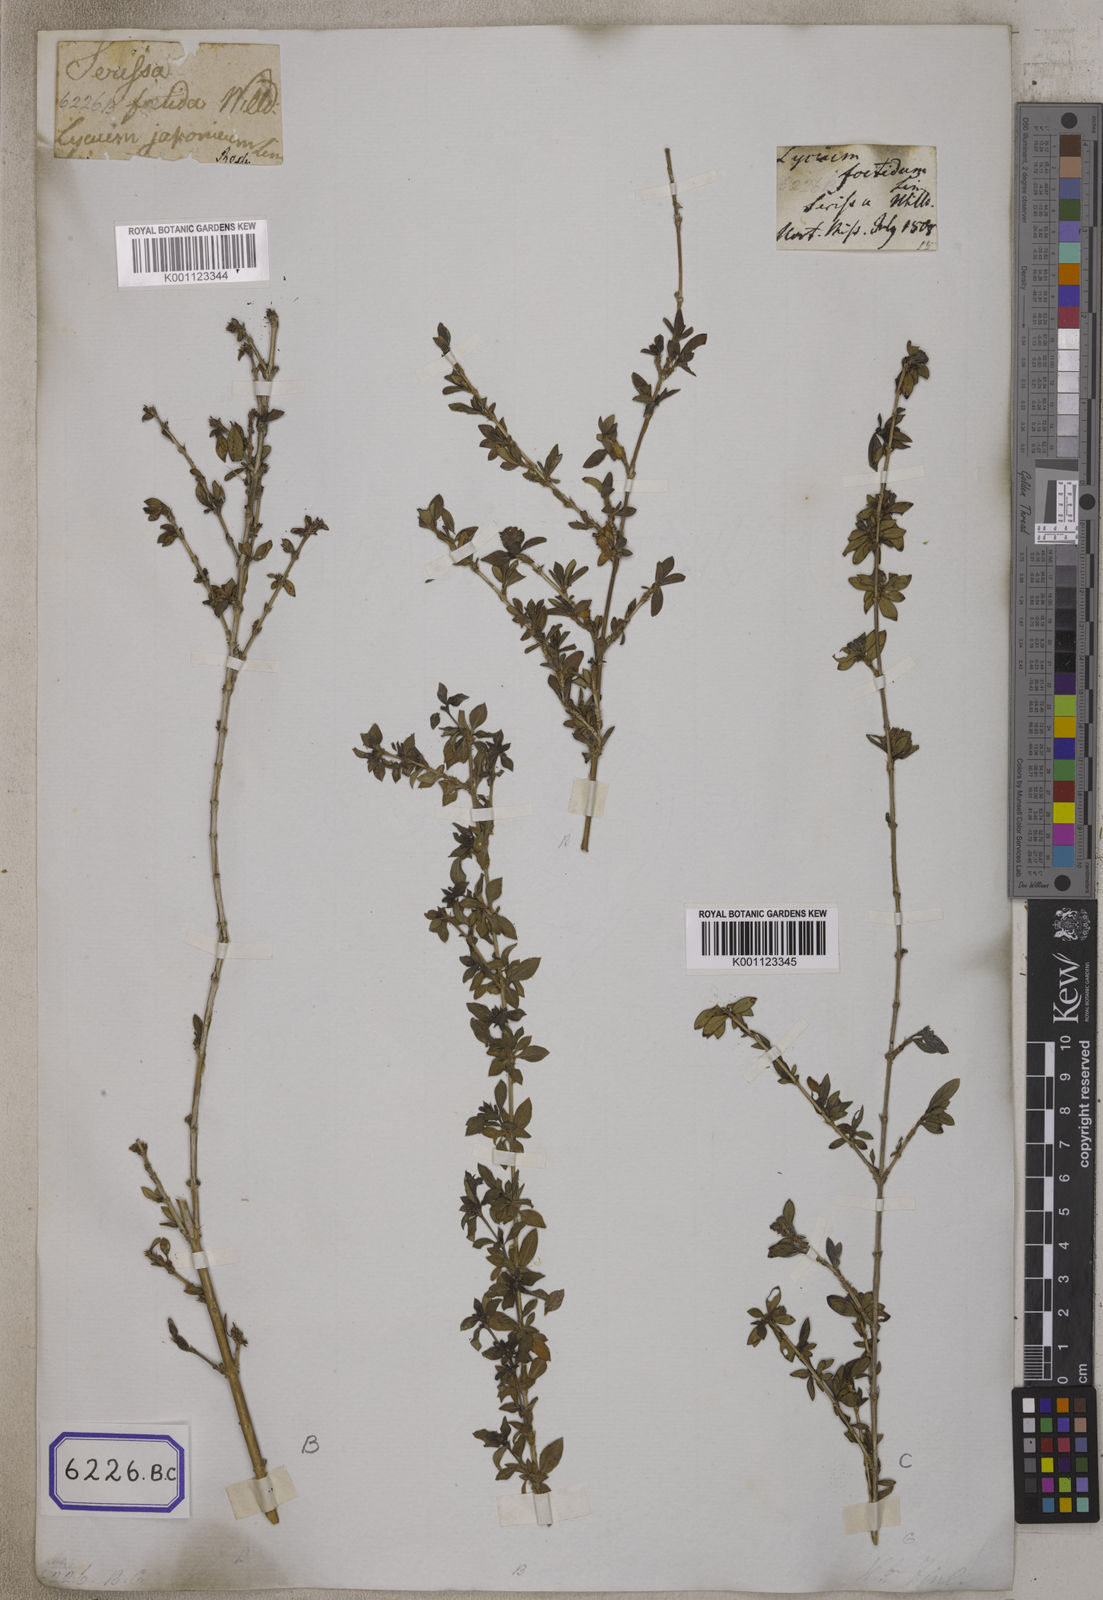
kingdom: Plantae
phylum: Tracheophyta
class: Magnoliopsida
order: Gentianales
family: Rubiaceae
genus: Buchozia
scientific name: Buchozia
